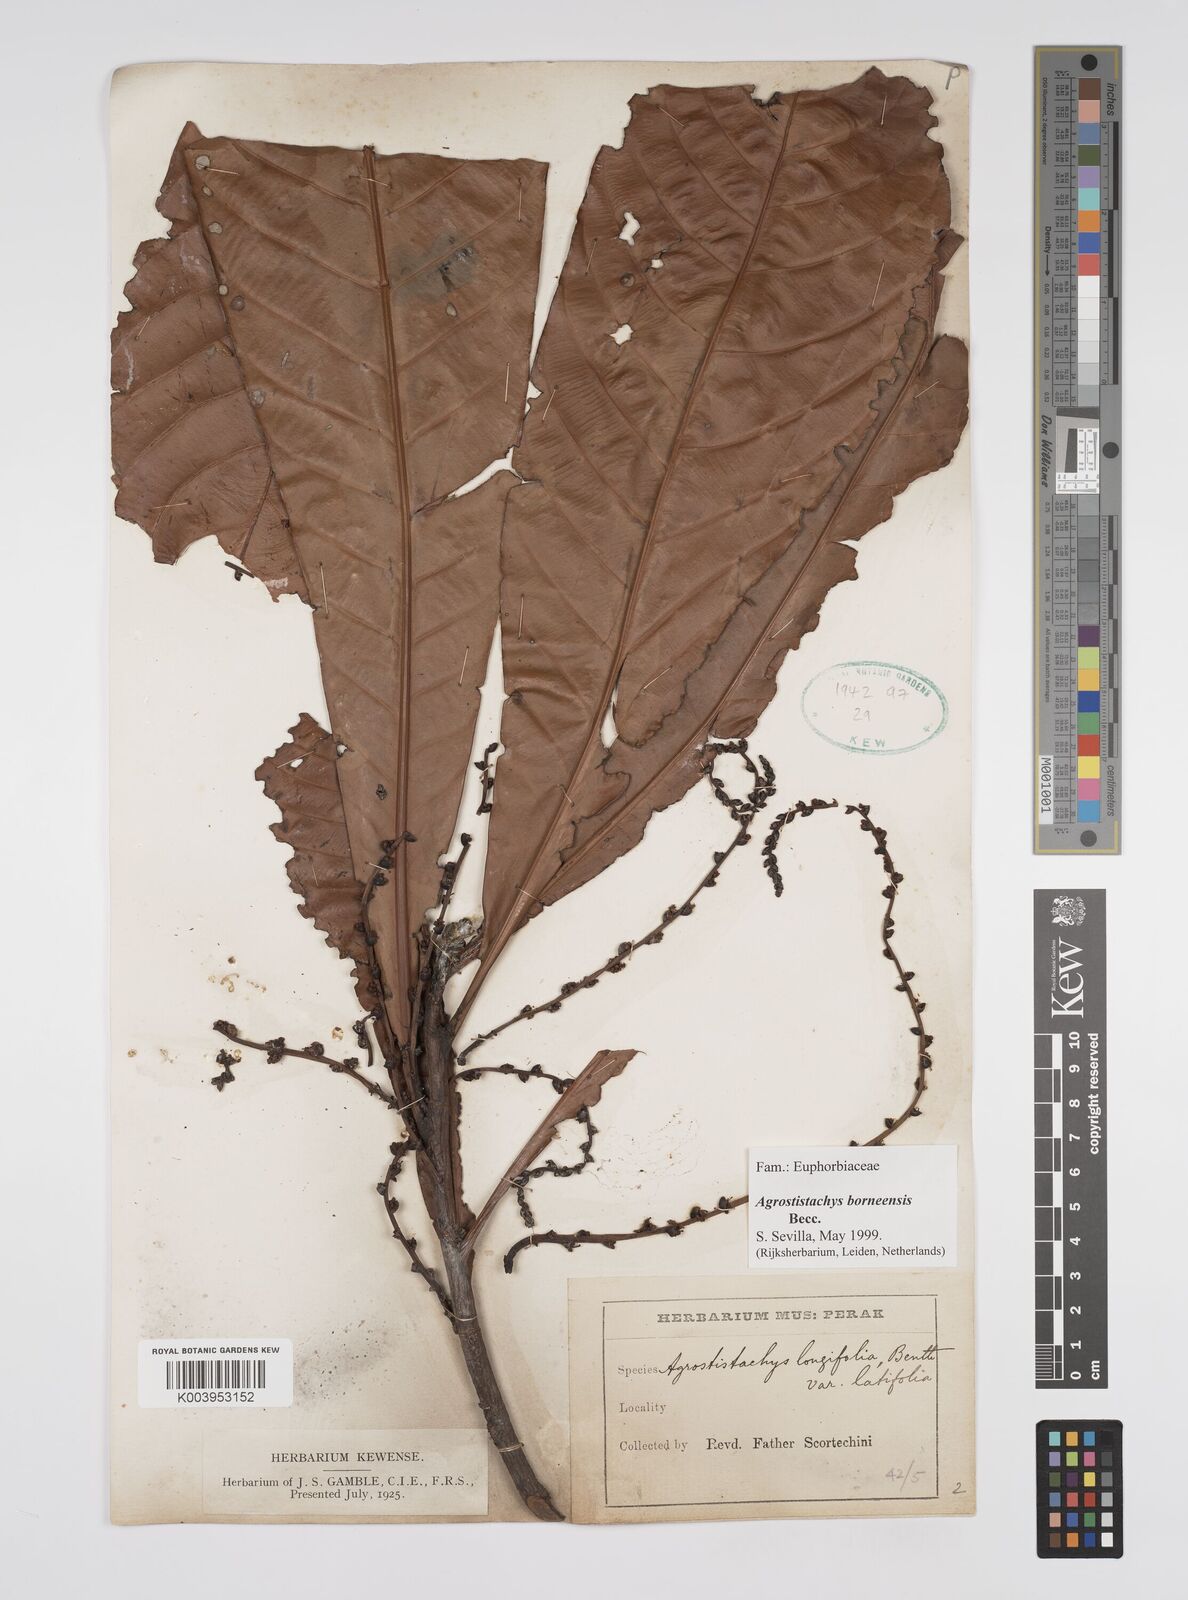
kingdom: Plantae
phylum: Tracheophyta
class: Magnoliopsida
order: Malpighiales
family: Euphorbiaceae
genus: Agrostistachys
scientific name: Agrostistachys borneensis
